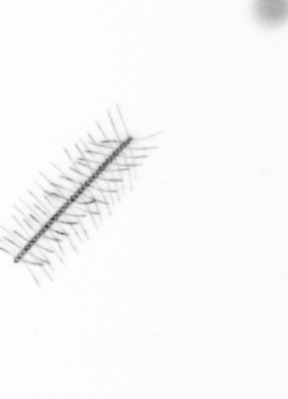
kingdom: Chromista
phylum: Ochrophyta
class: Bacillariophyceae
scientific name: Bacillariophyceae
